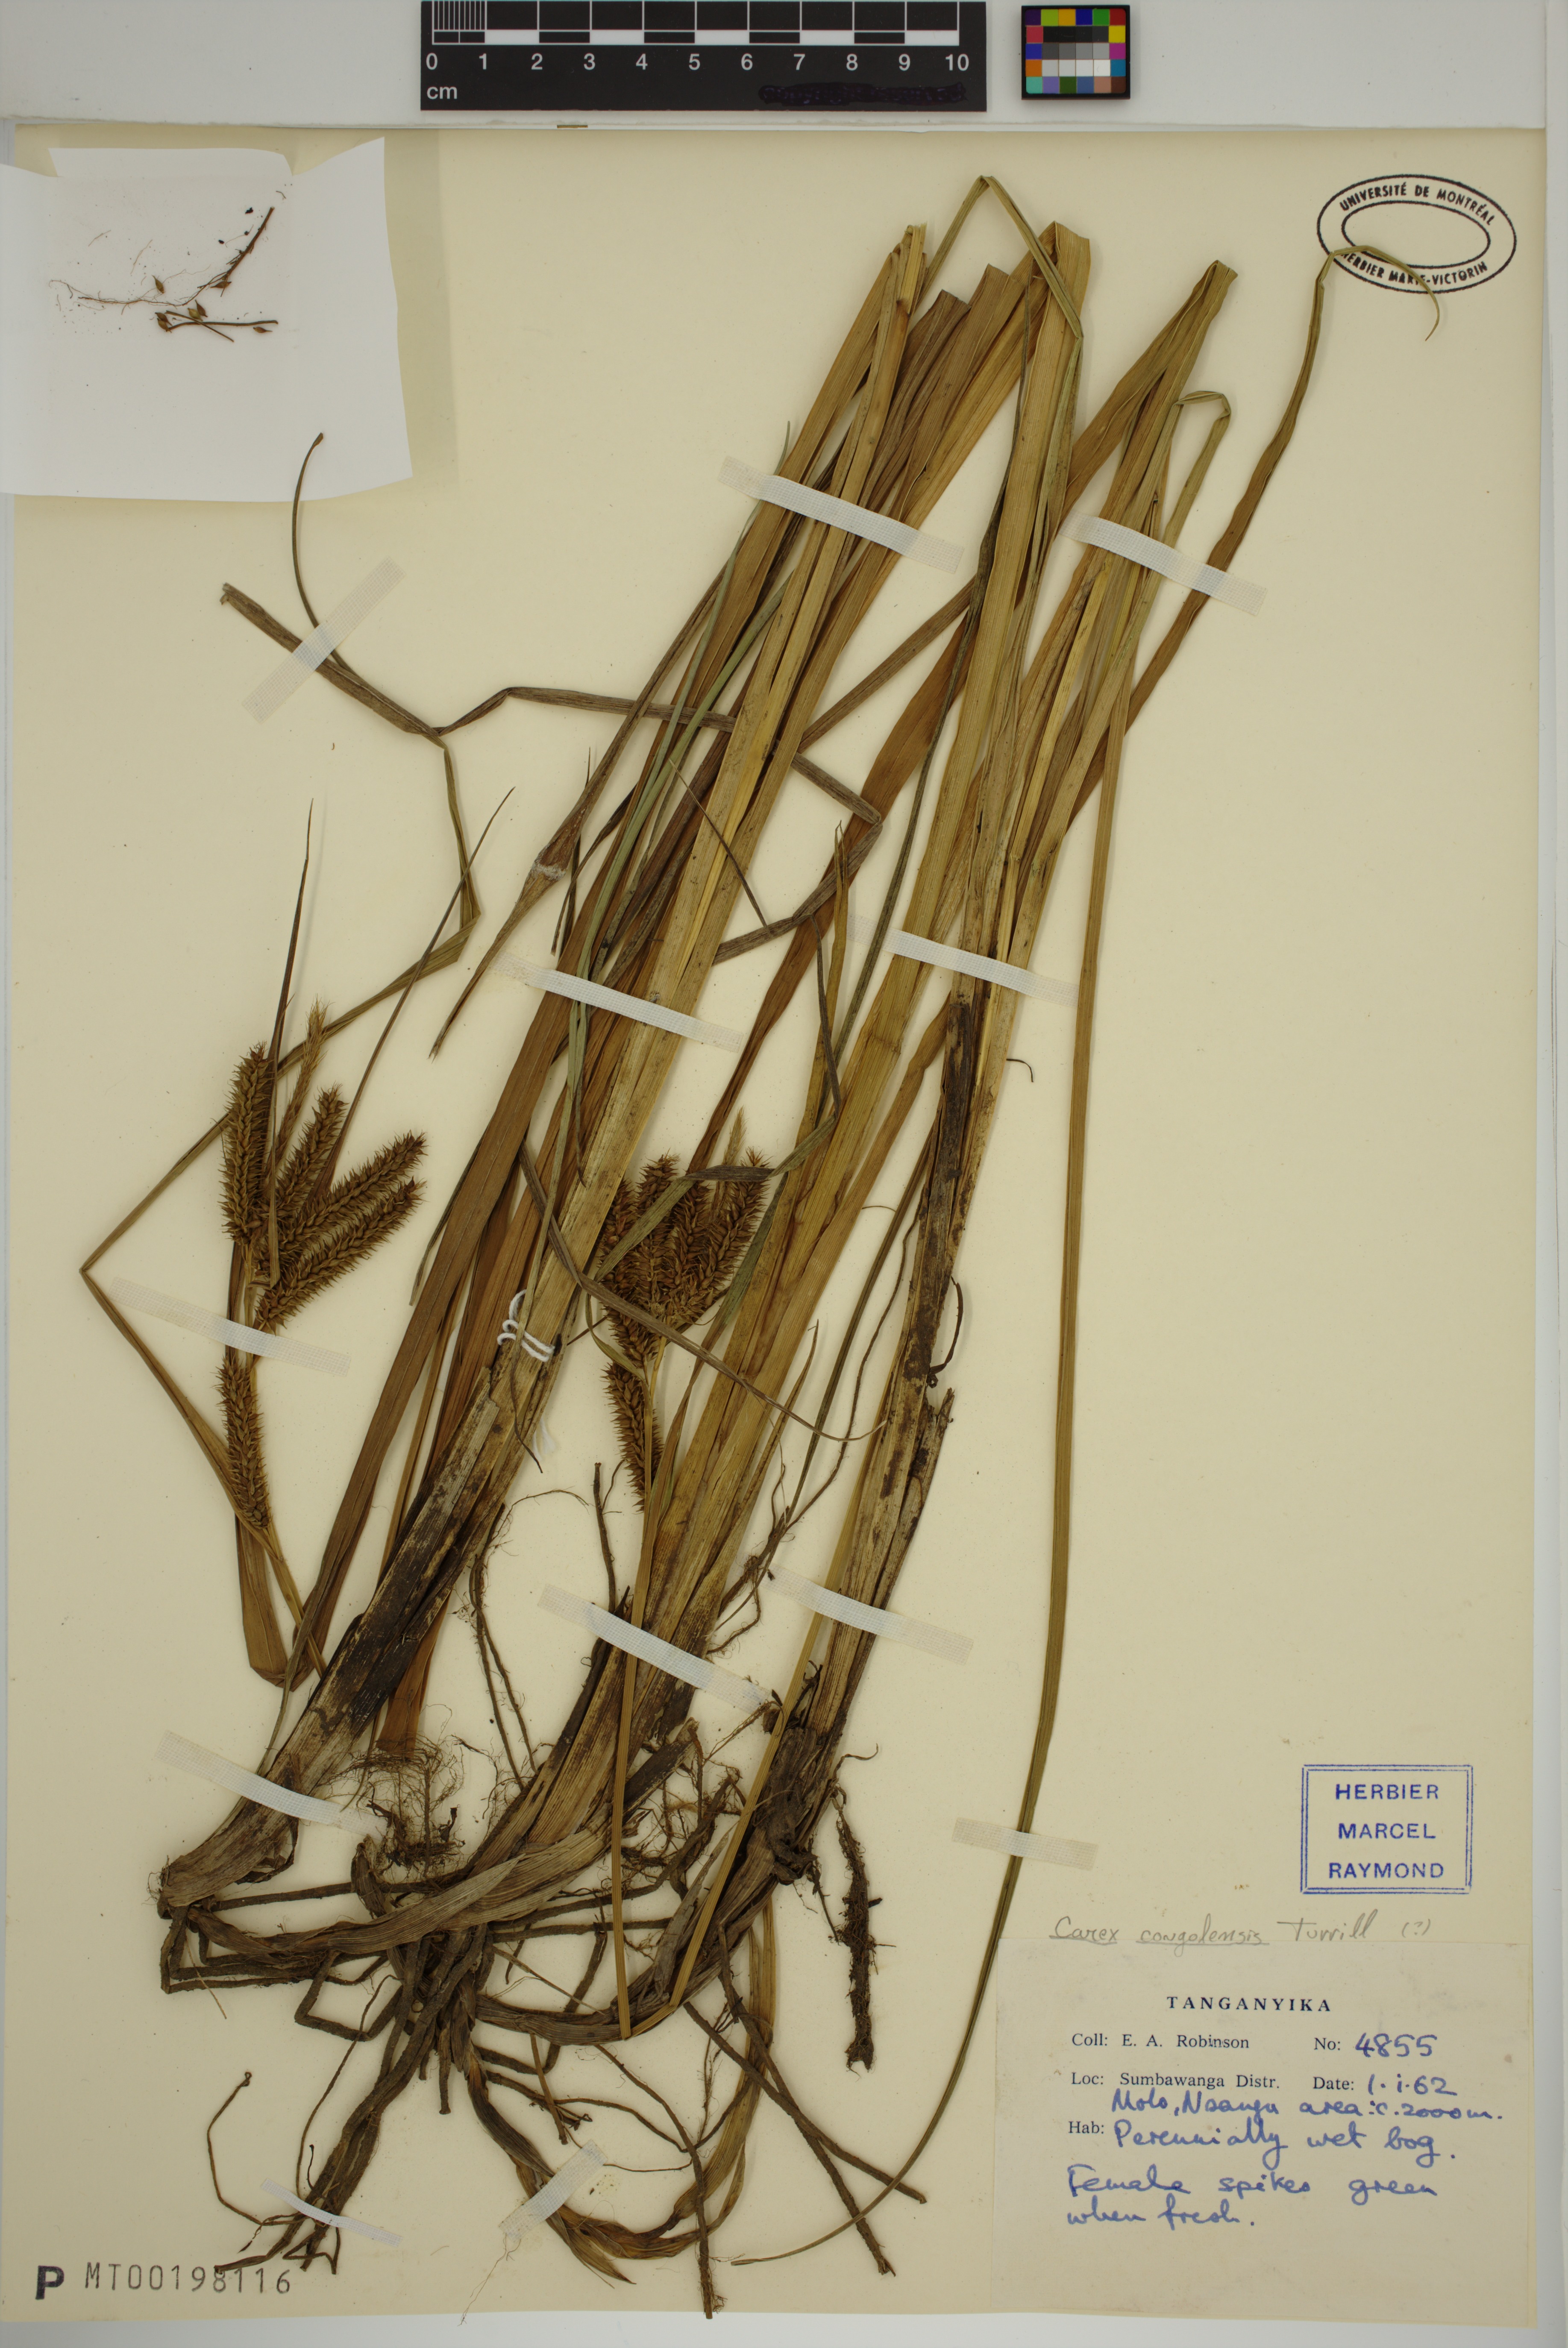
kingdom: Plantae
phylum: Tracheophyta
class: Liliopsida
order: Poales
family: Cyperaceae
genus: Carex
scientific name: Carex cognata
